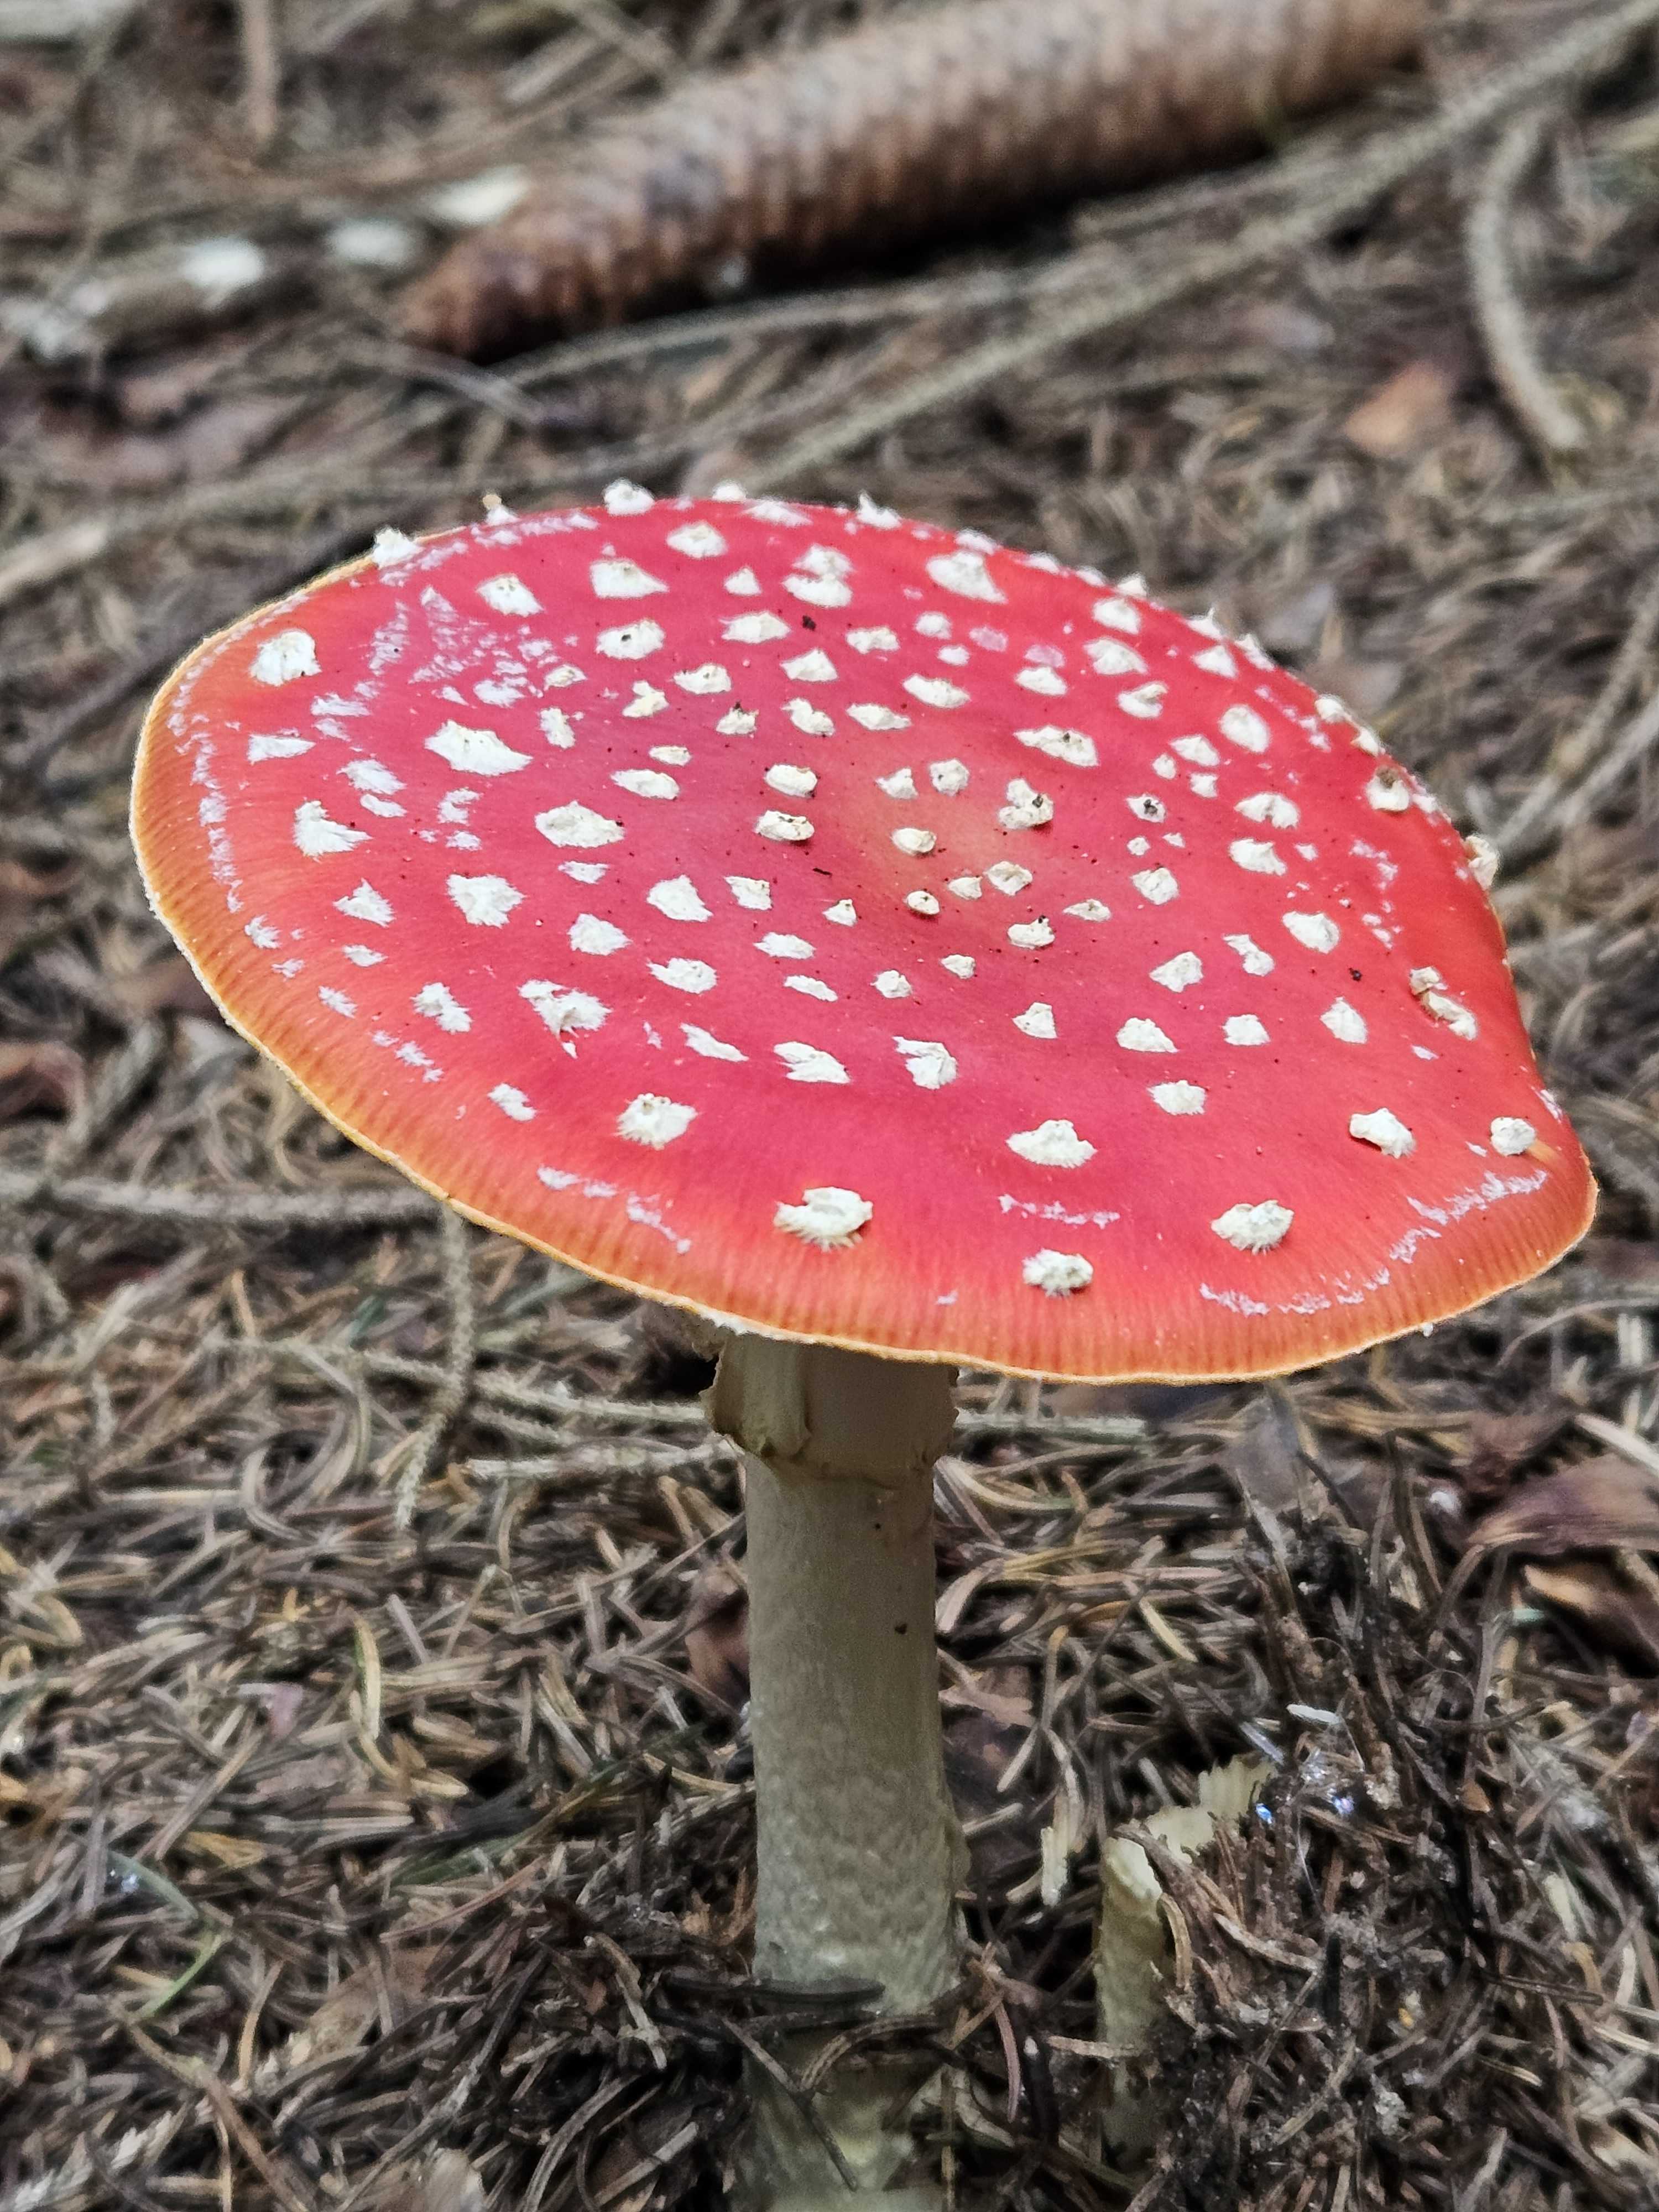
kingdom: Fungi
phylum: Basidiomycota
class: Agaricomycetes
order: Agaricales
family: Amanitaceae
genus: Amanita
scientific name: Amanita muscaria
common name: rød fluesvamp
